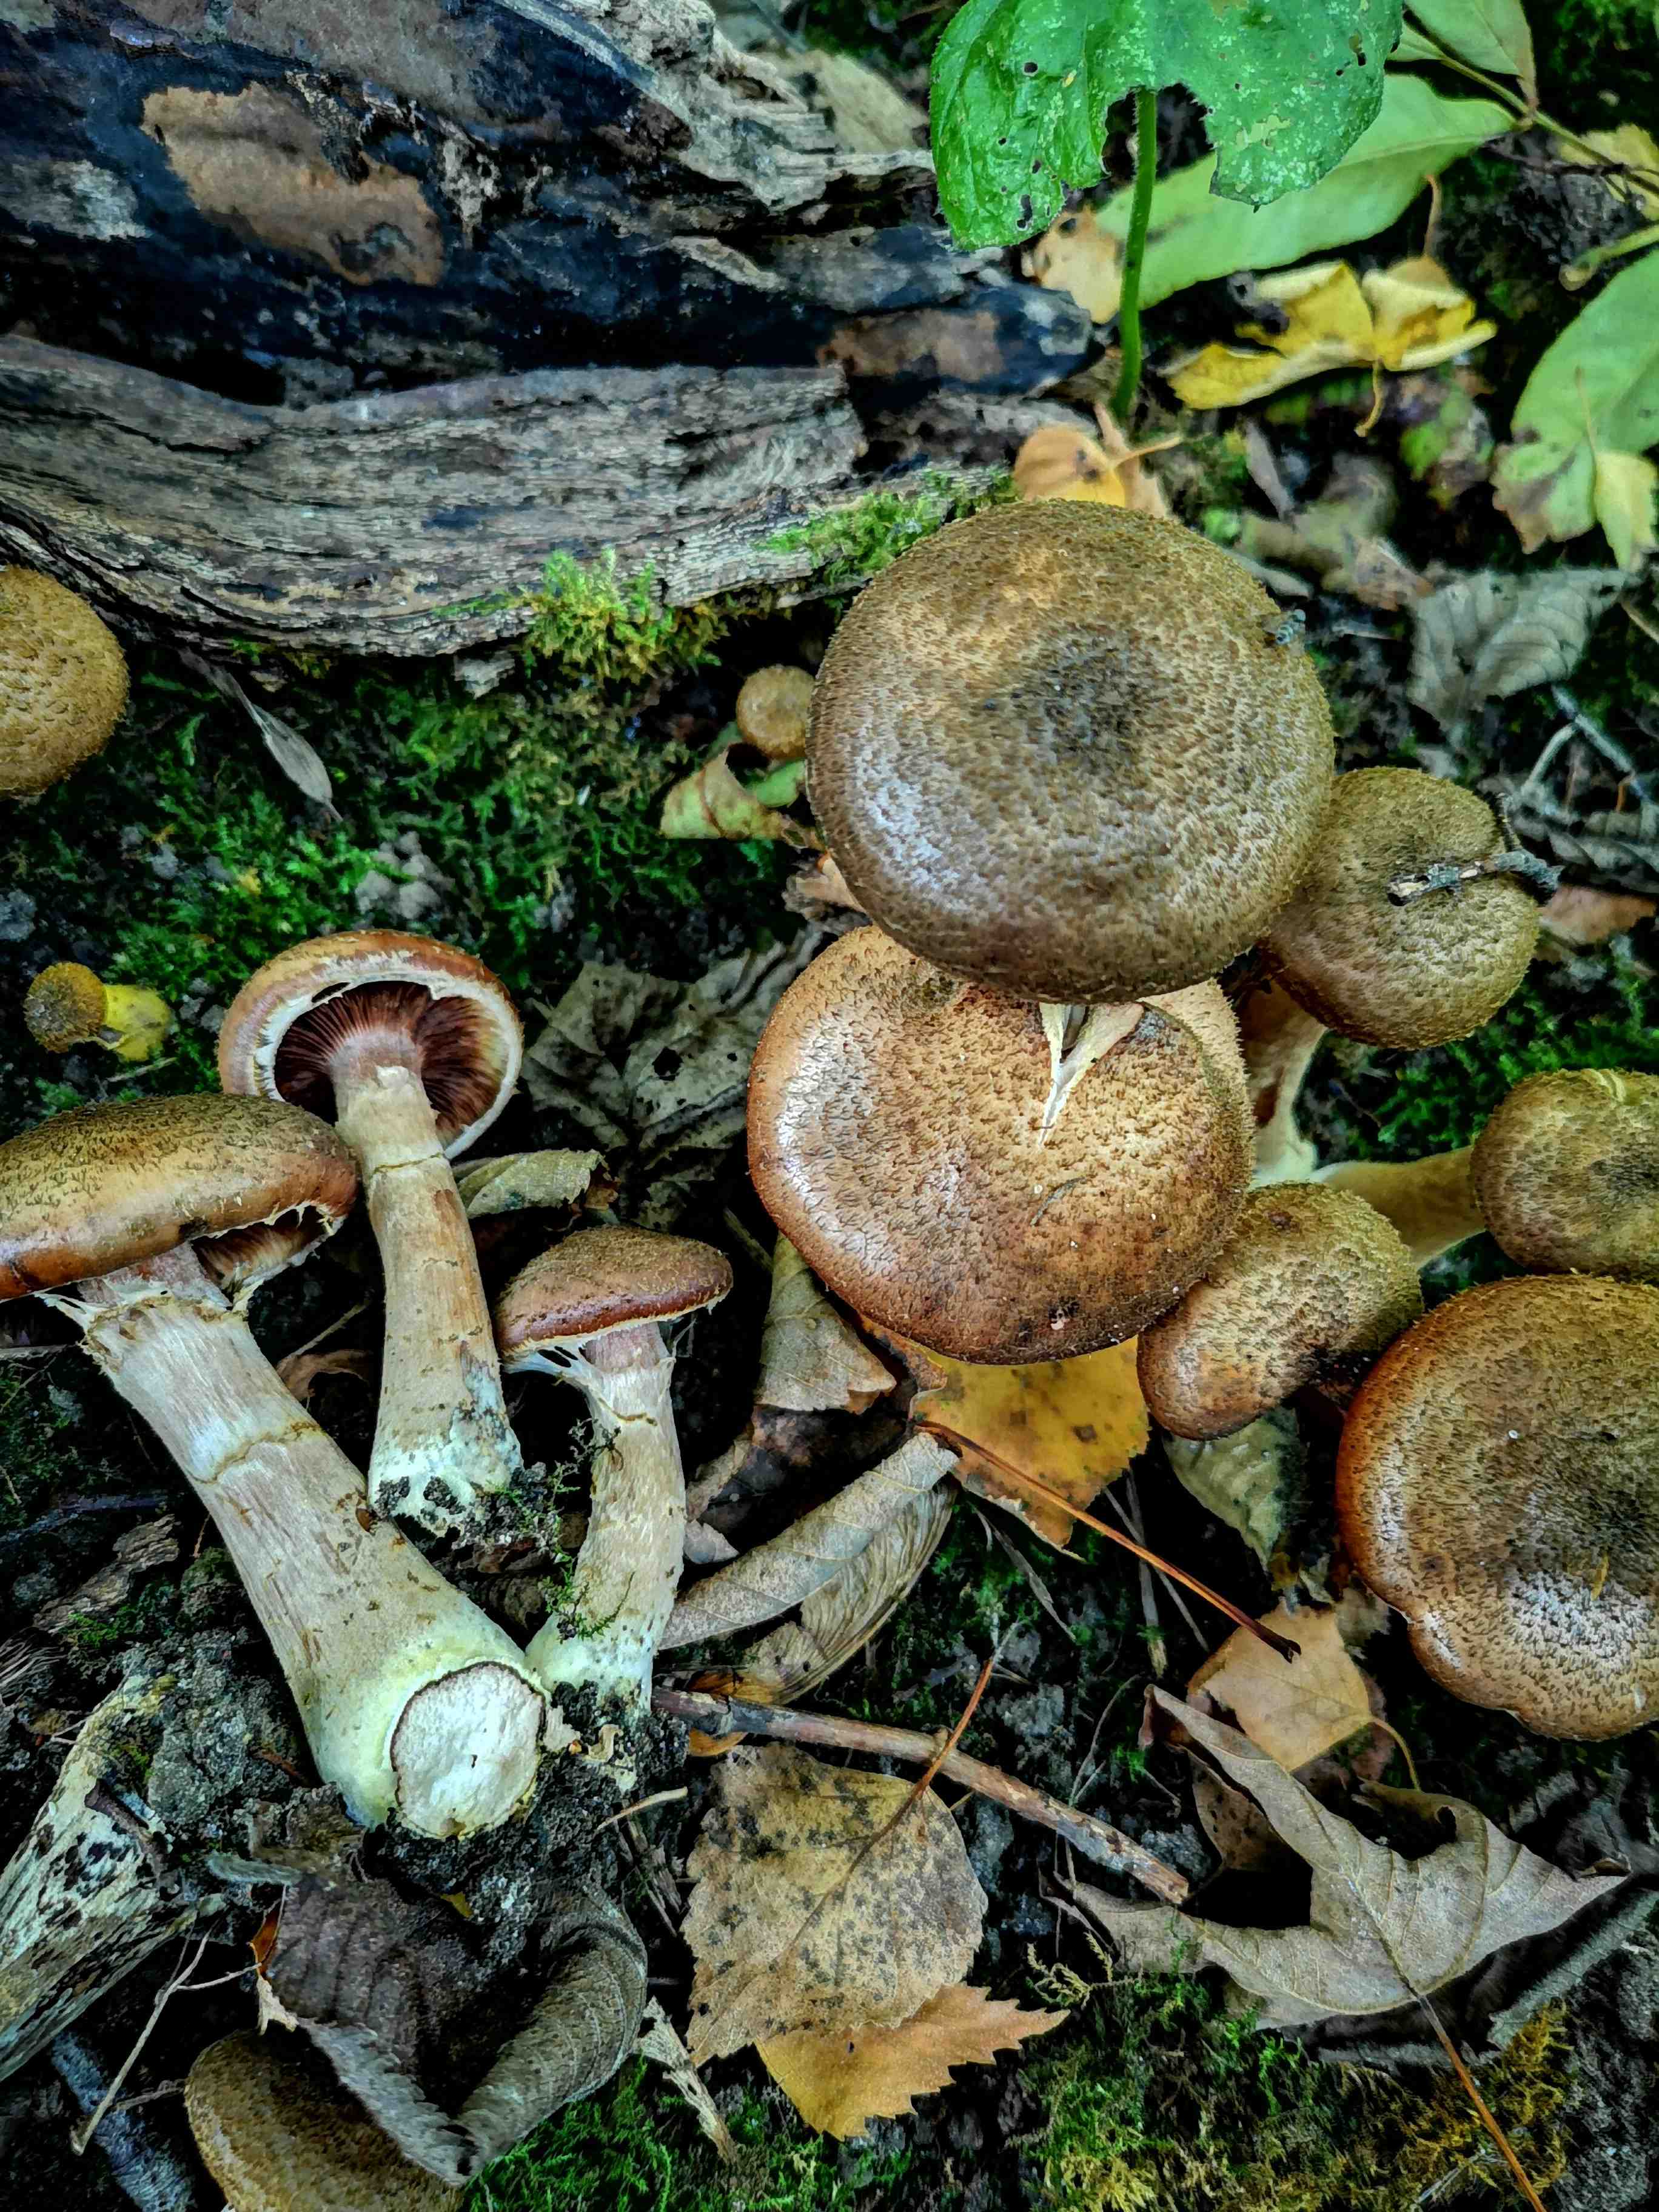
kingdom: Fungi
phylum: Basidiomycota
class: Agaricomycetes
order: Agaricales
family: Physalacriaceae
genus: Armillaria
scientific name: Armillaria lutea
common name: køllestokket honningsvamp
